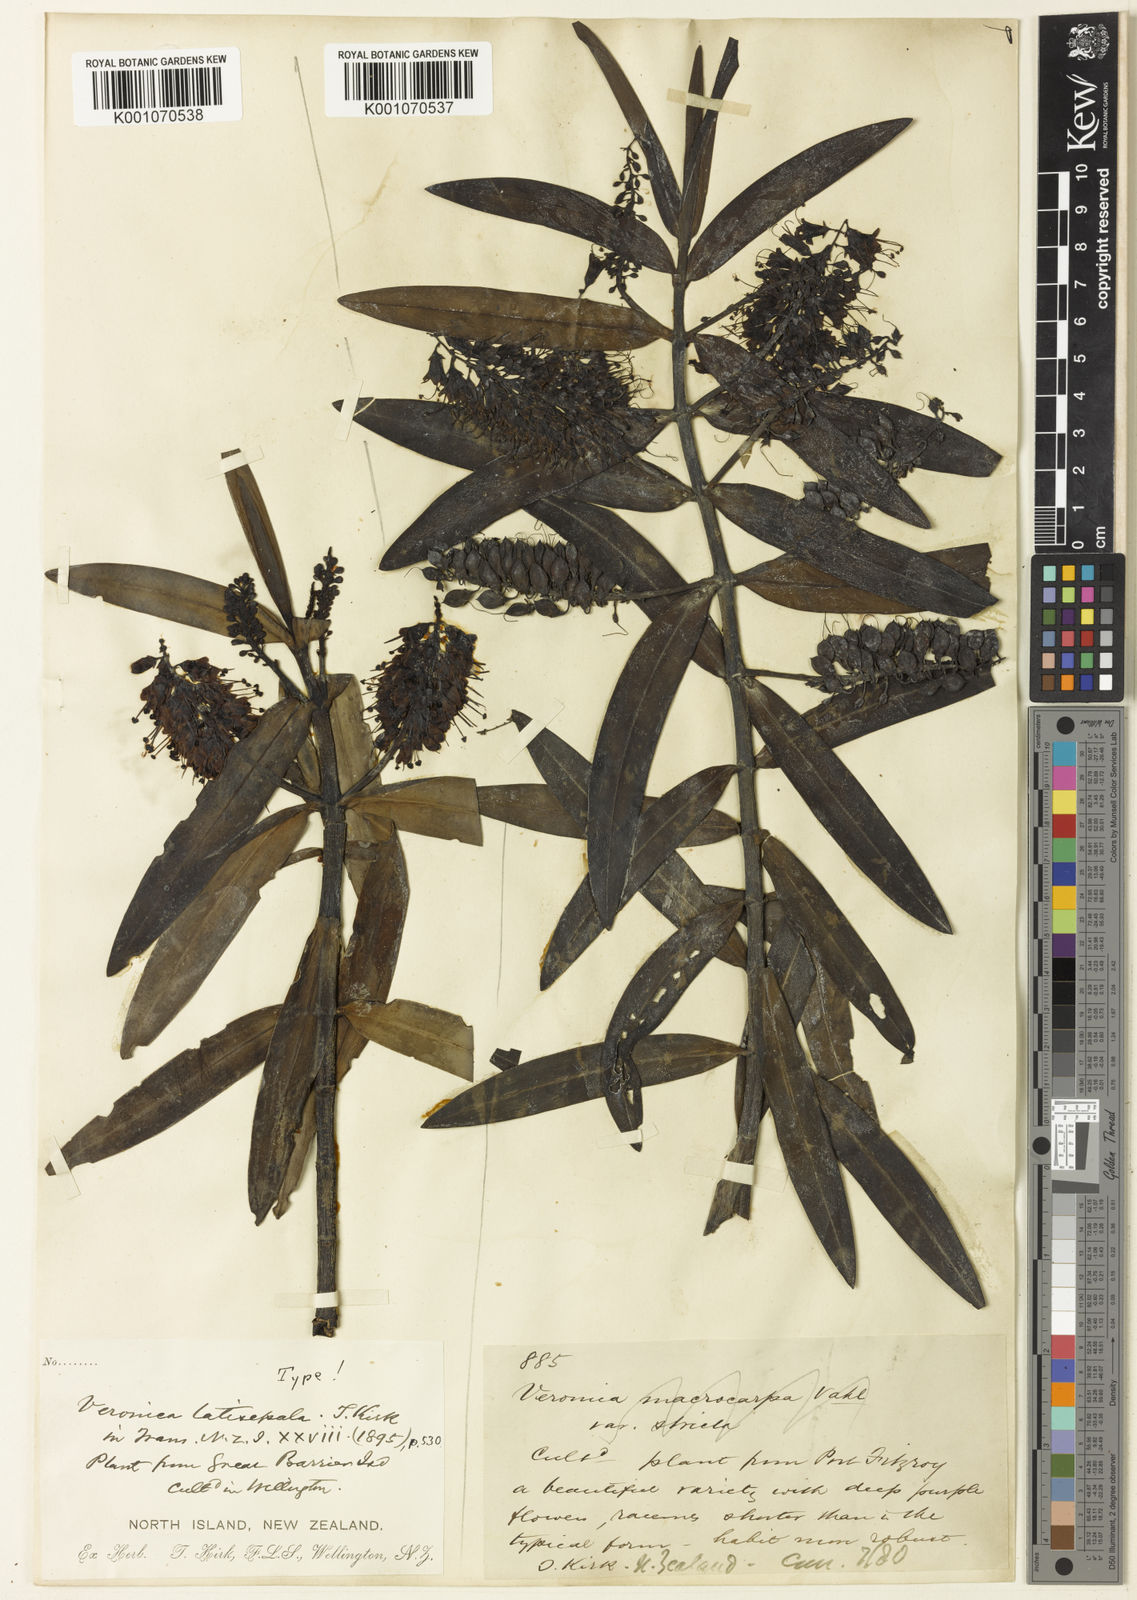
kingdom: Plantae
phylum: Tracheophyta
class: Magnoliopsida
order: Lamiales
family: Plantaginaceae
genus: Veronica
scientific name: Veronica
